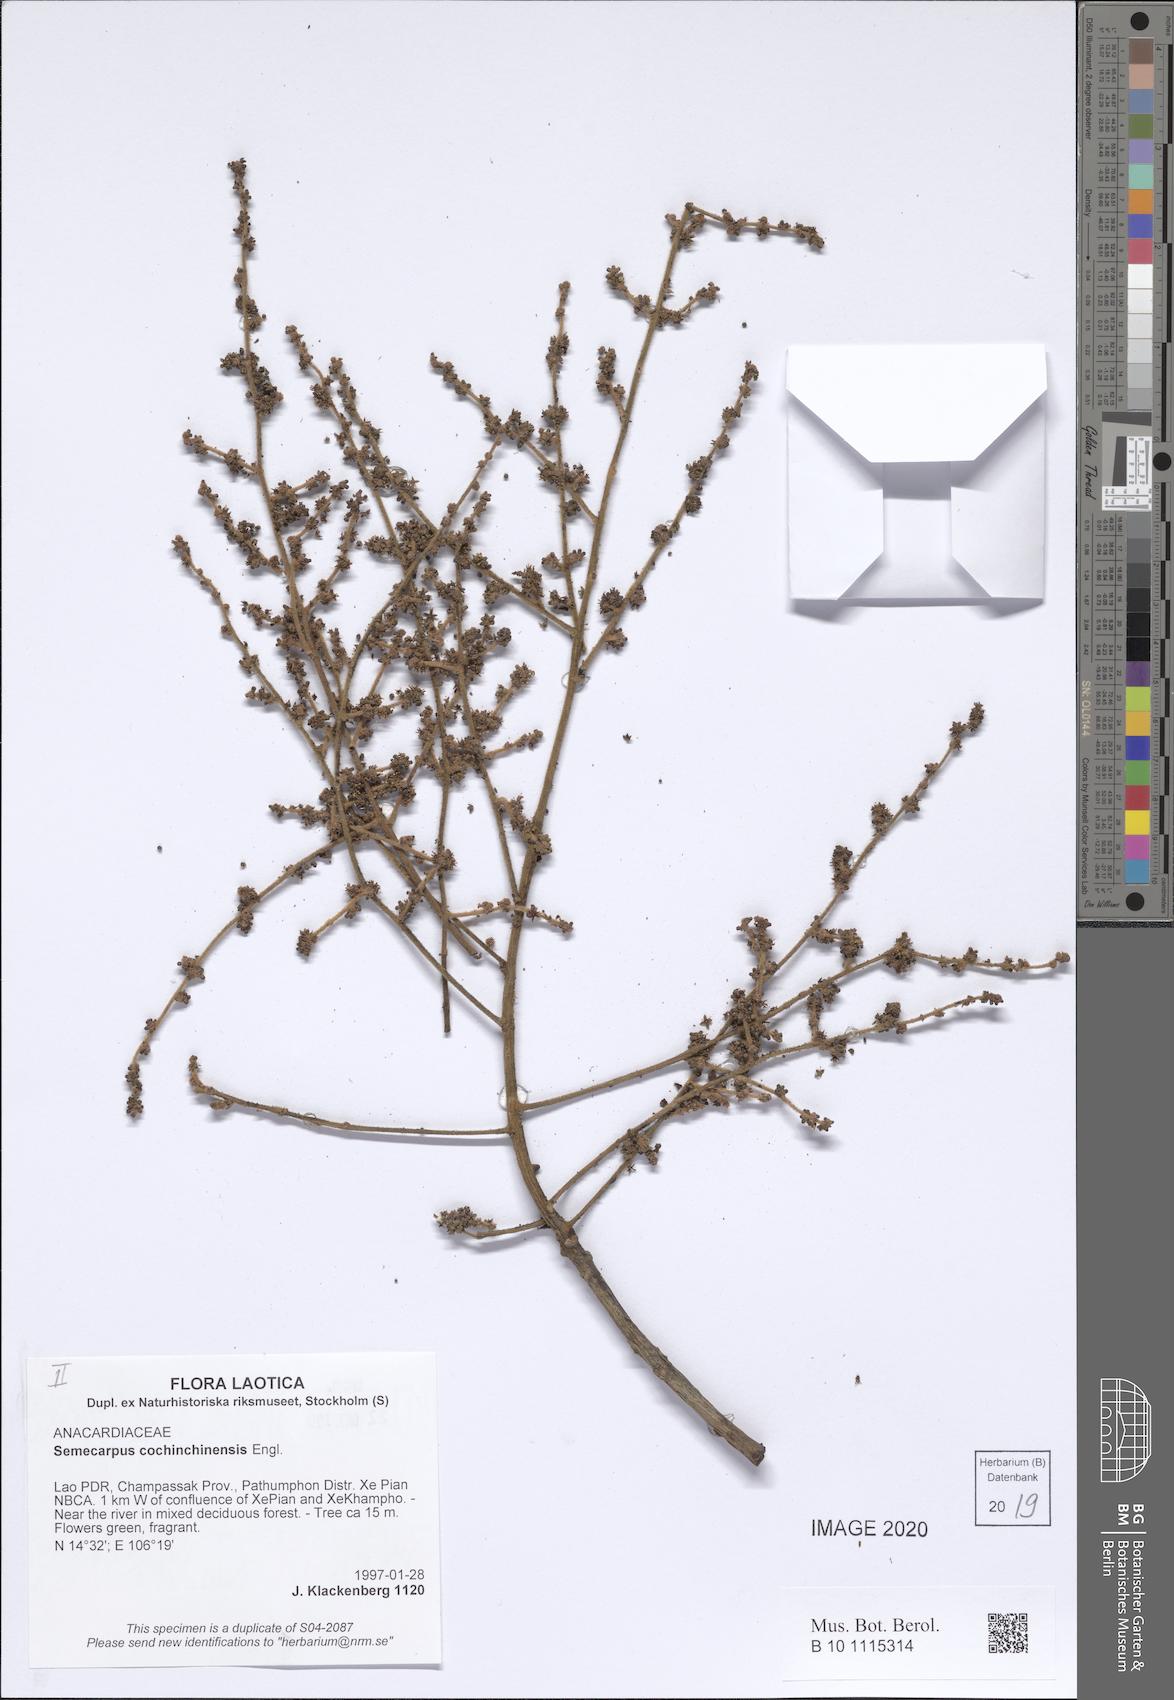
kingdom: Plantae
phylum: Tracheophyta
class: Magnoliopsida
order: Sapindales
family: Anacardiaceae
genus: Semecarpus
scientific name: Semecarpus cochinchinensis
